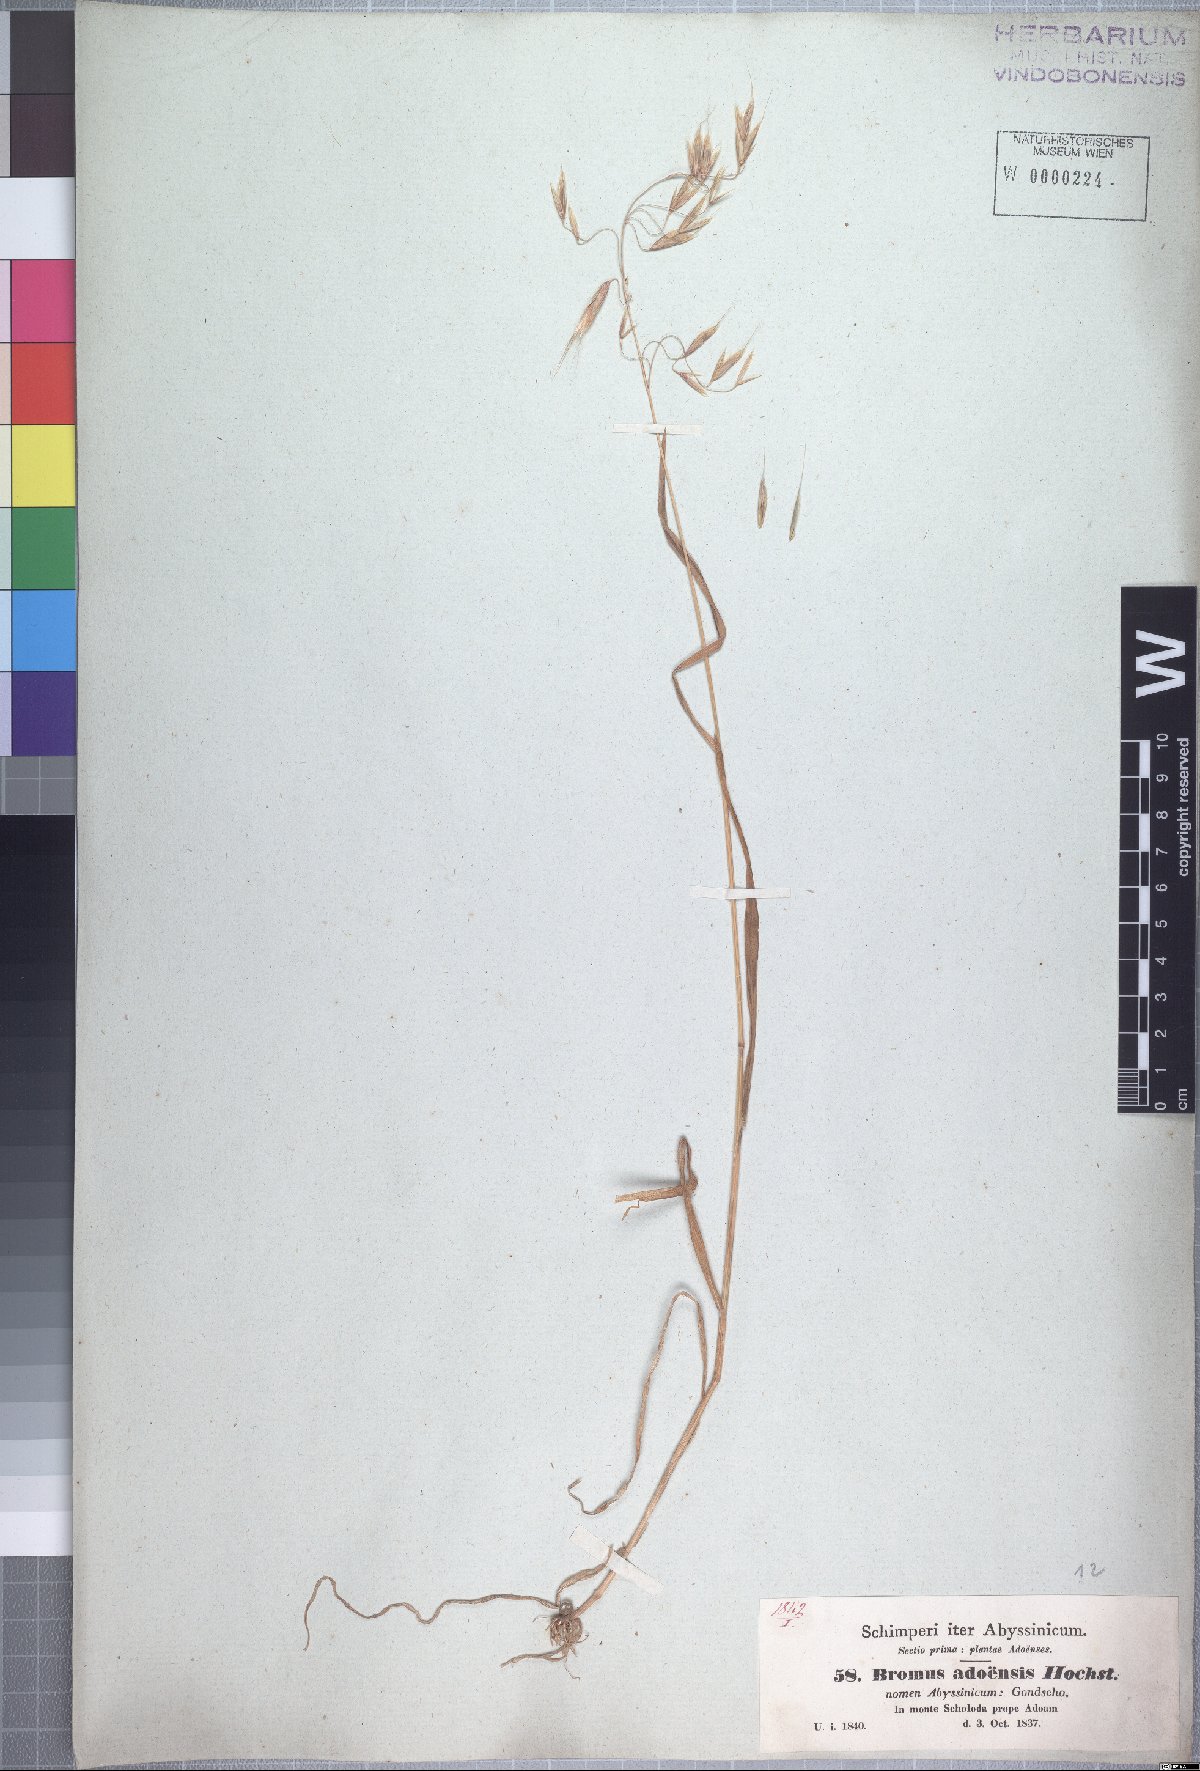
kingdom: Plantae
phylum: Tracheophyta
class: Liliopsida
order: Poales
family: Poaceae
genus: Bromus
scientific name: Bromus pectinatus
